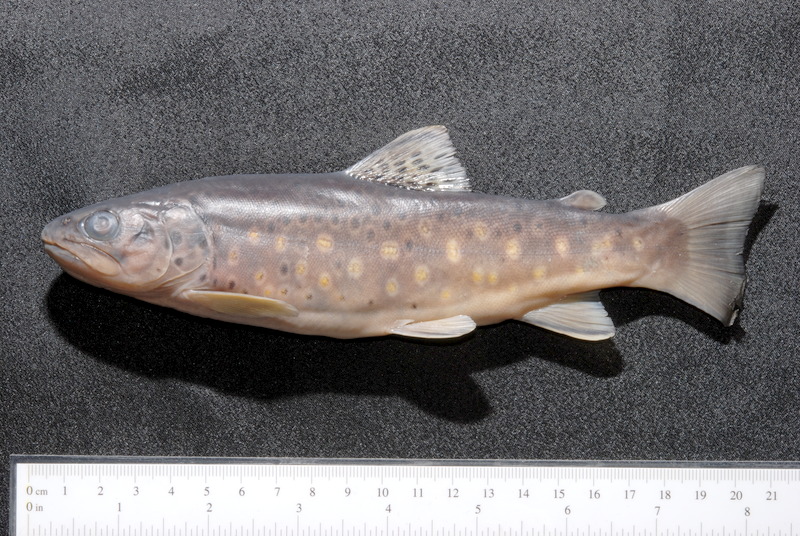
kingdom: Animalia
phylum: Chordata
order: Salmoniformes
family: Salmonidae
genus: Salmo
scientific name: Salmo trutta
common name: Brown trout
